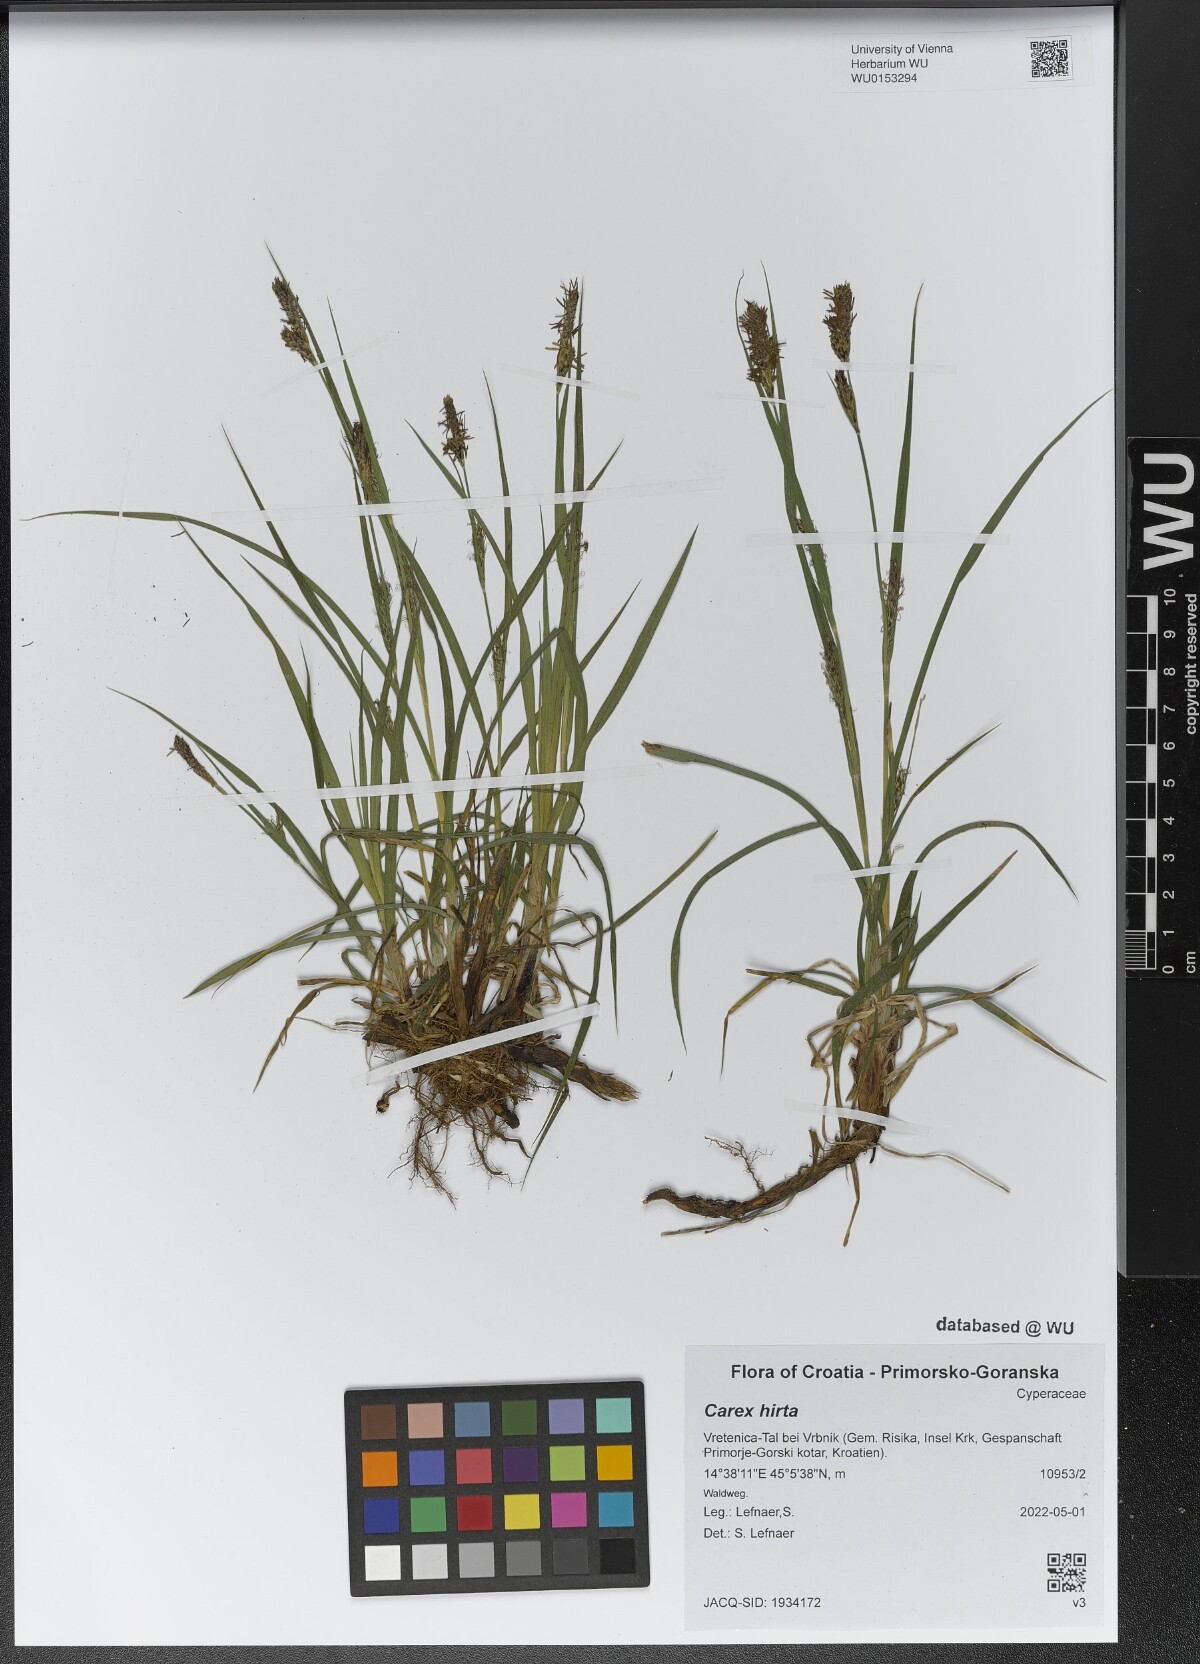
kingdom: Plantae
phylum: Tracheophyta
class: Liliopsida
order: Poales
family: Cyperaceae
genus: Carex
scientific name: Carex hirta
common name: Hairy sedge
